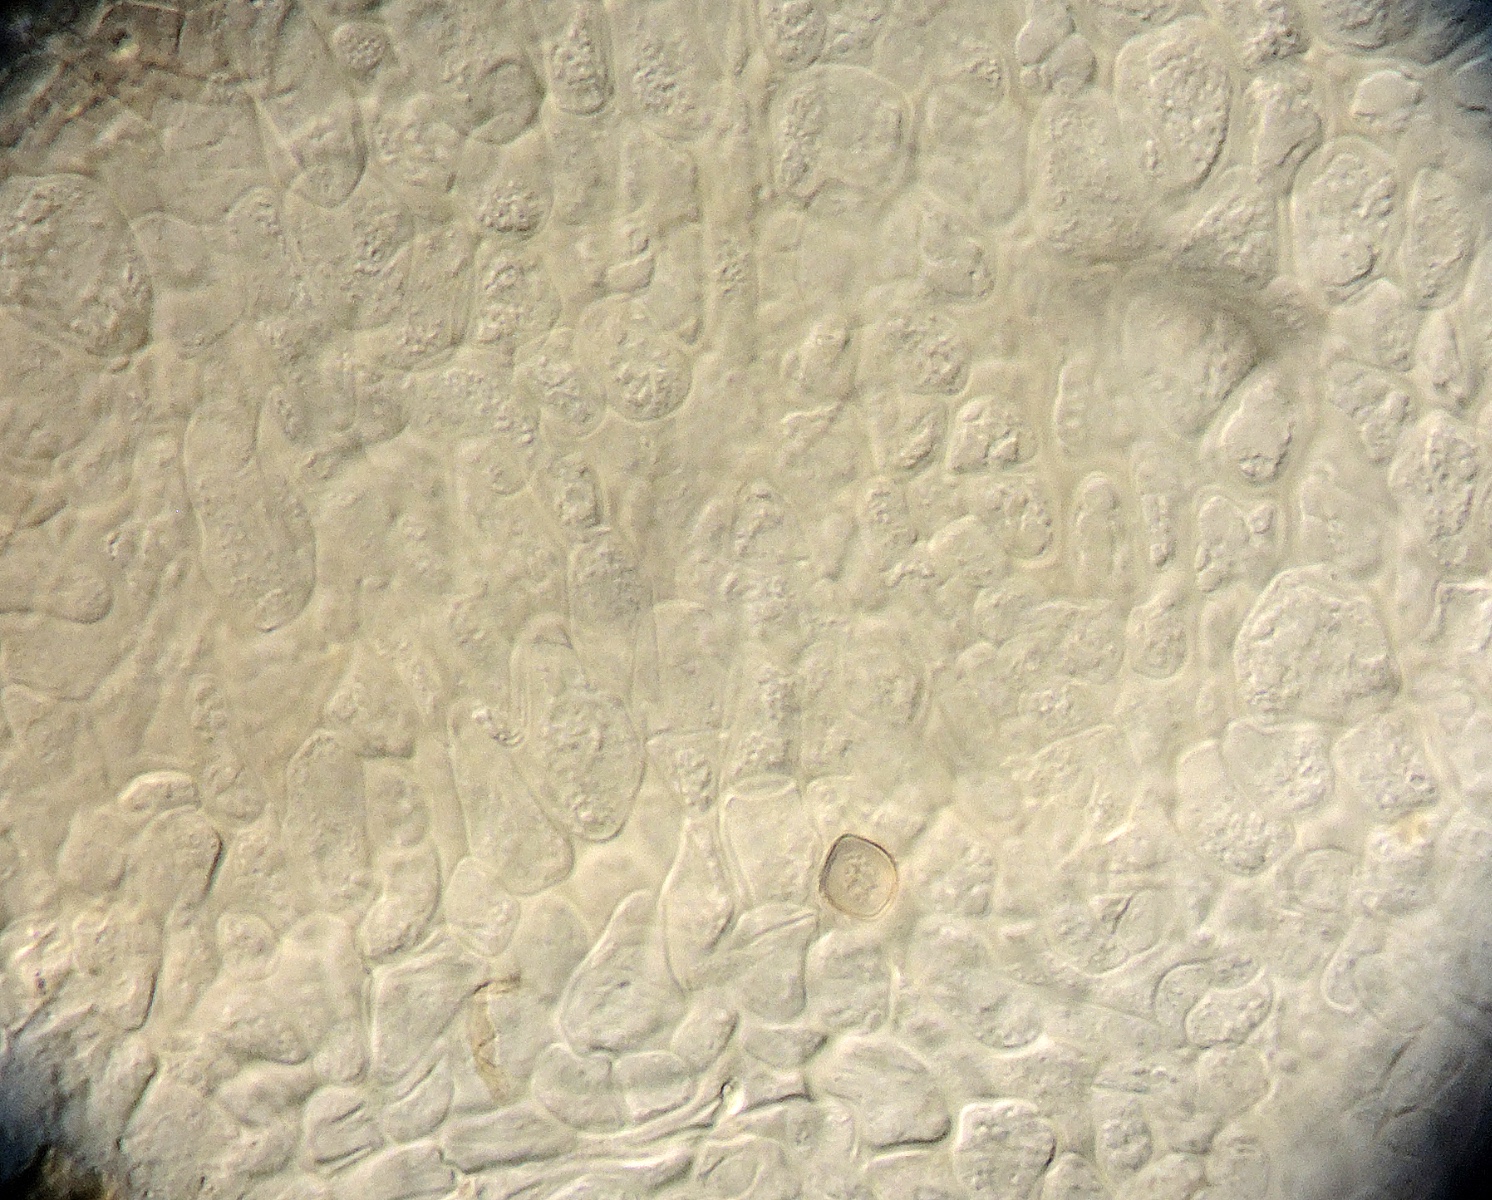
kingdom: Fungi
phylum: Ascomycota
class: Sordariomycetes
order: Hypocreales
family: Cordycipitaceae
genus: Torrubiella
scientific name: Torrubiella aranicida
